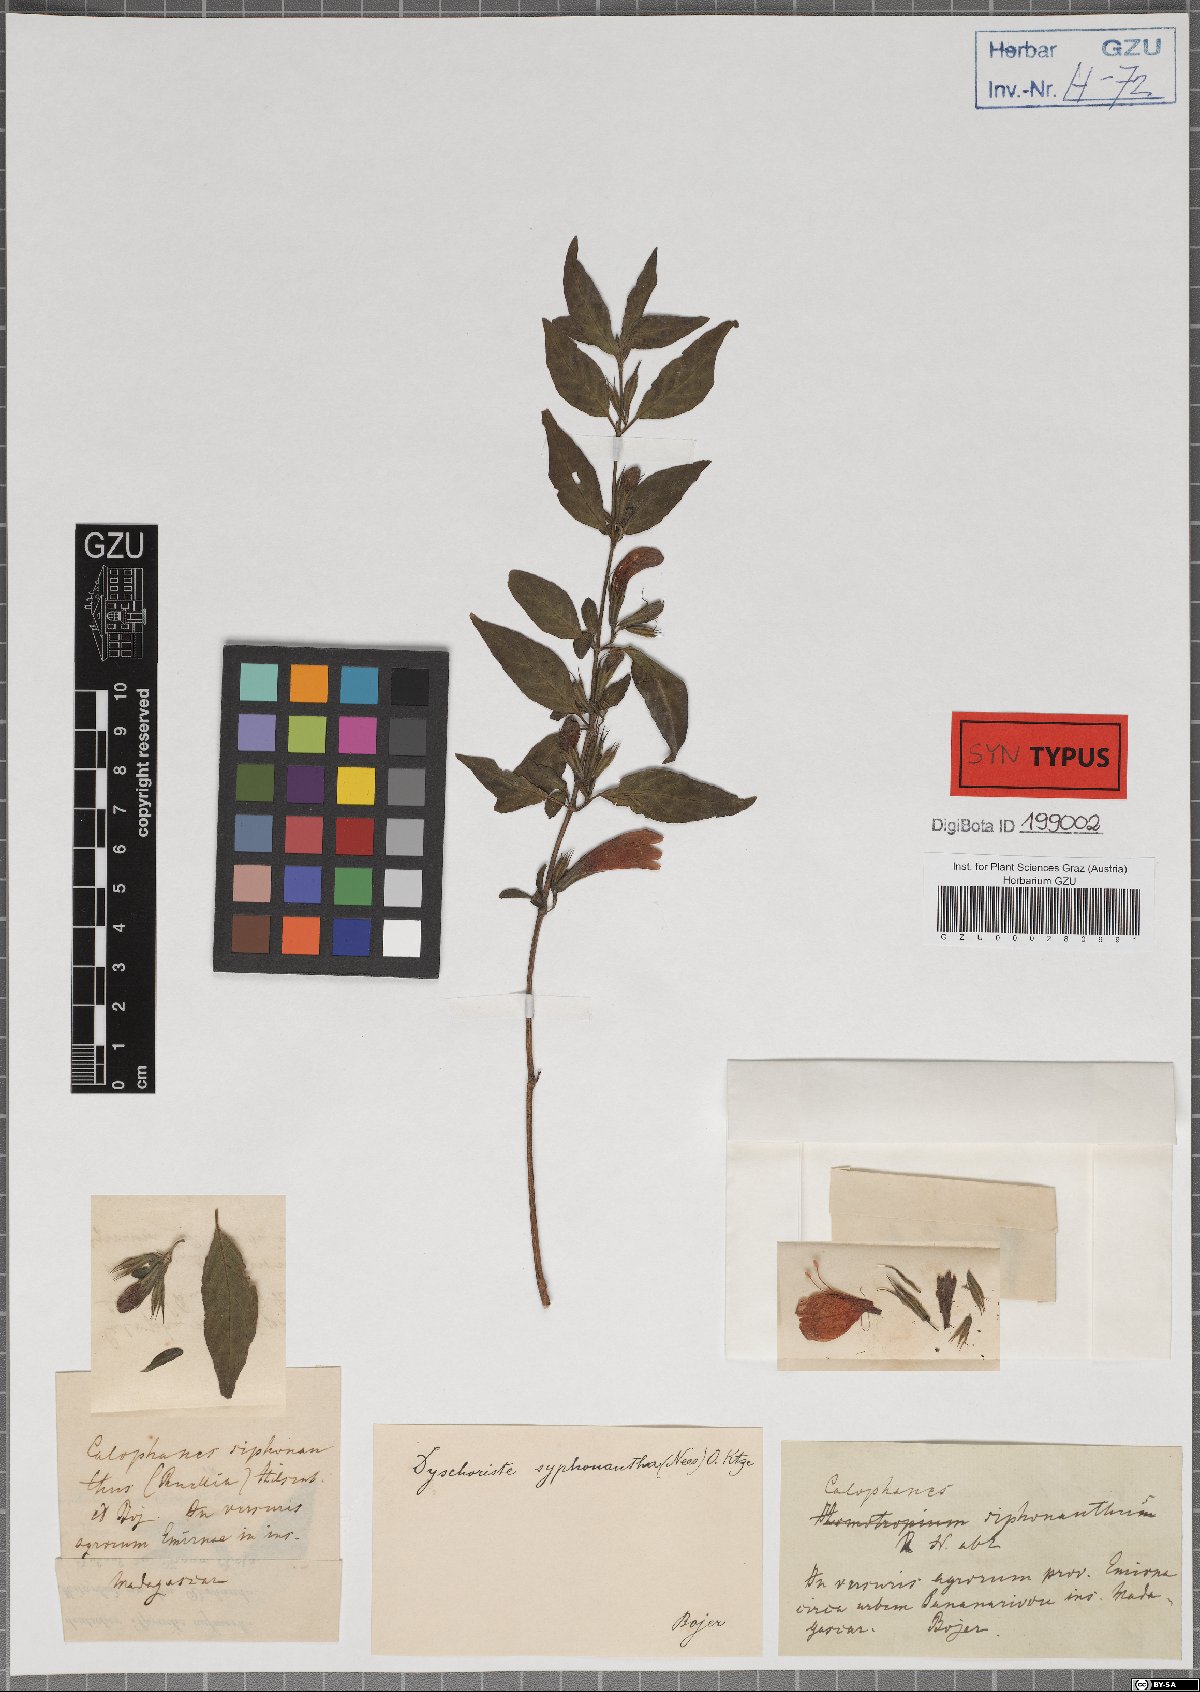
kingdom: Plantae
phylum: Tracheophyta
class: Magnoliopsida
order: Lamiales
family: Acanthaceae
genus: Dyschoriste
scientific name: Dyschoriste siphonantha
